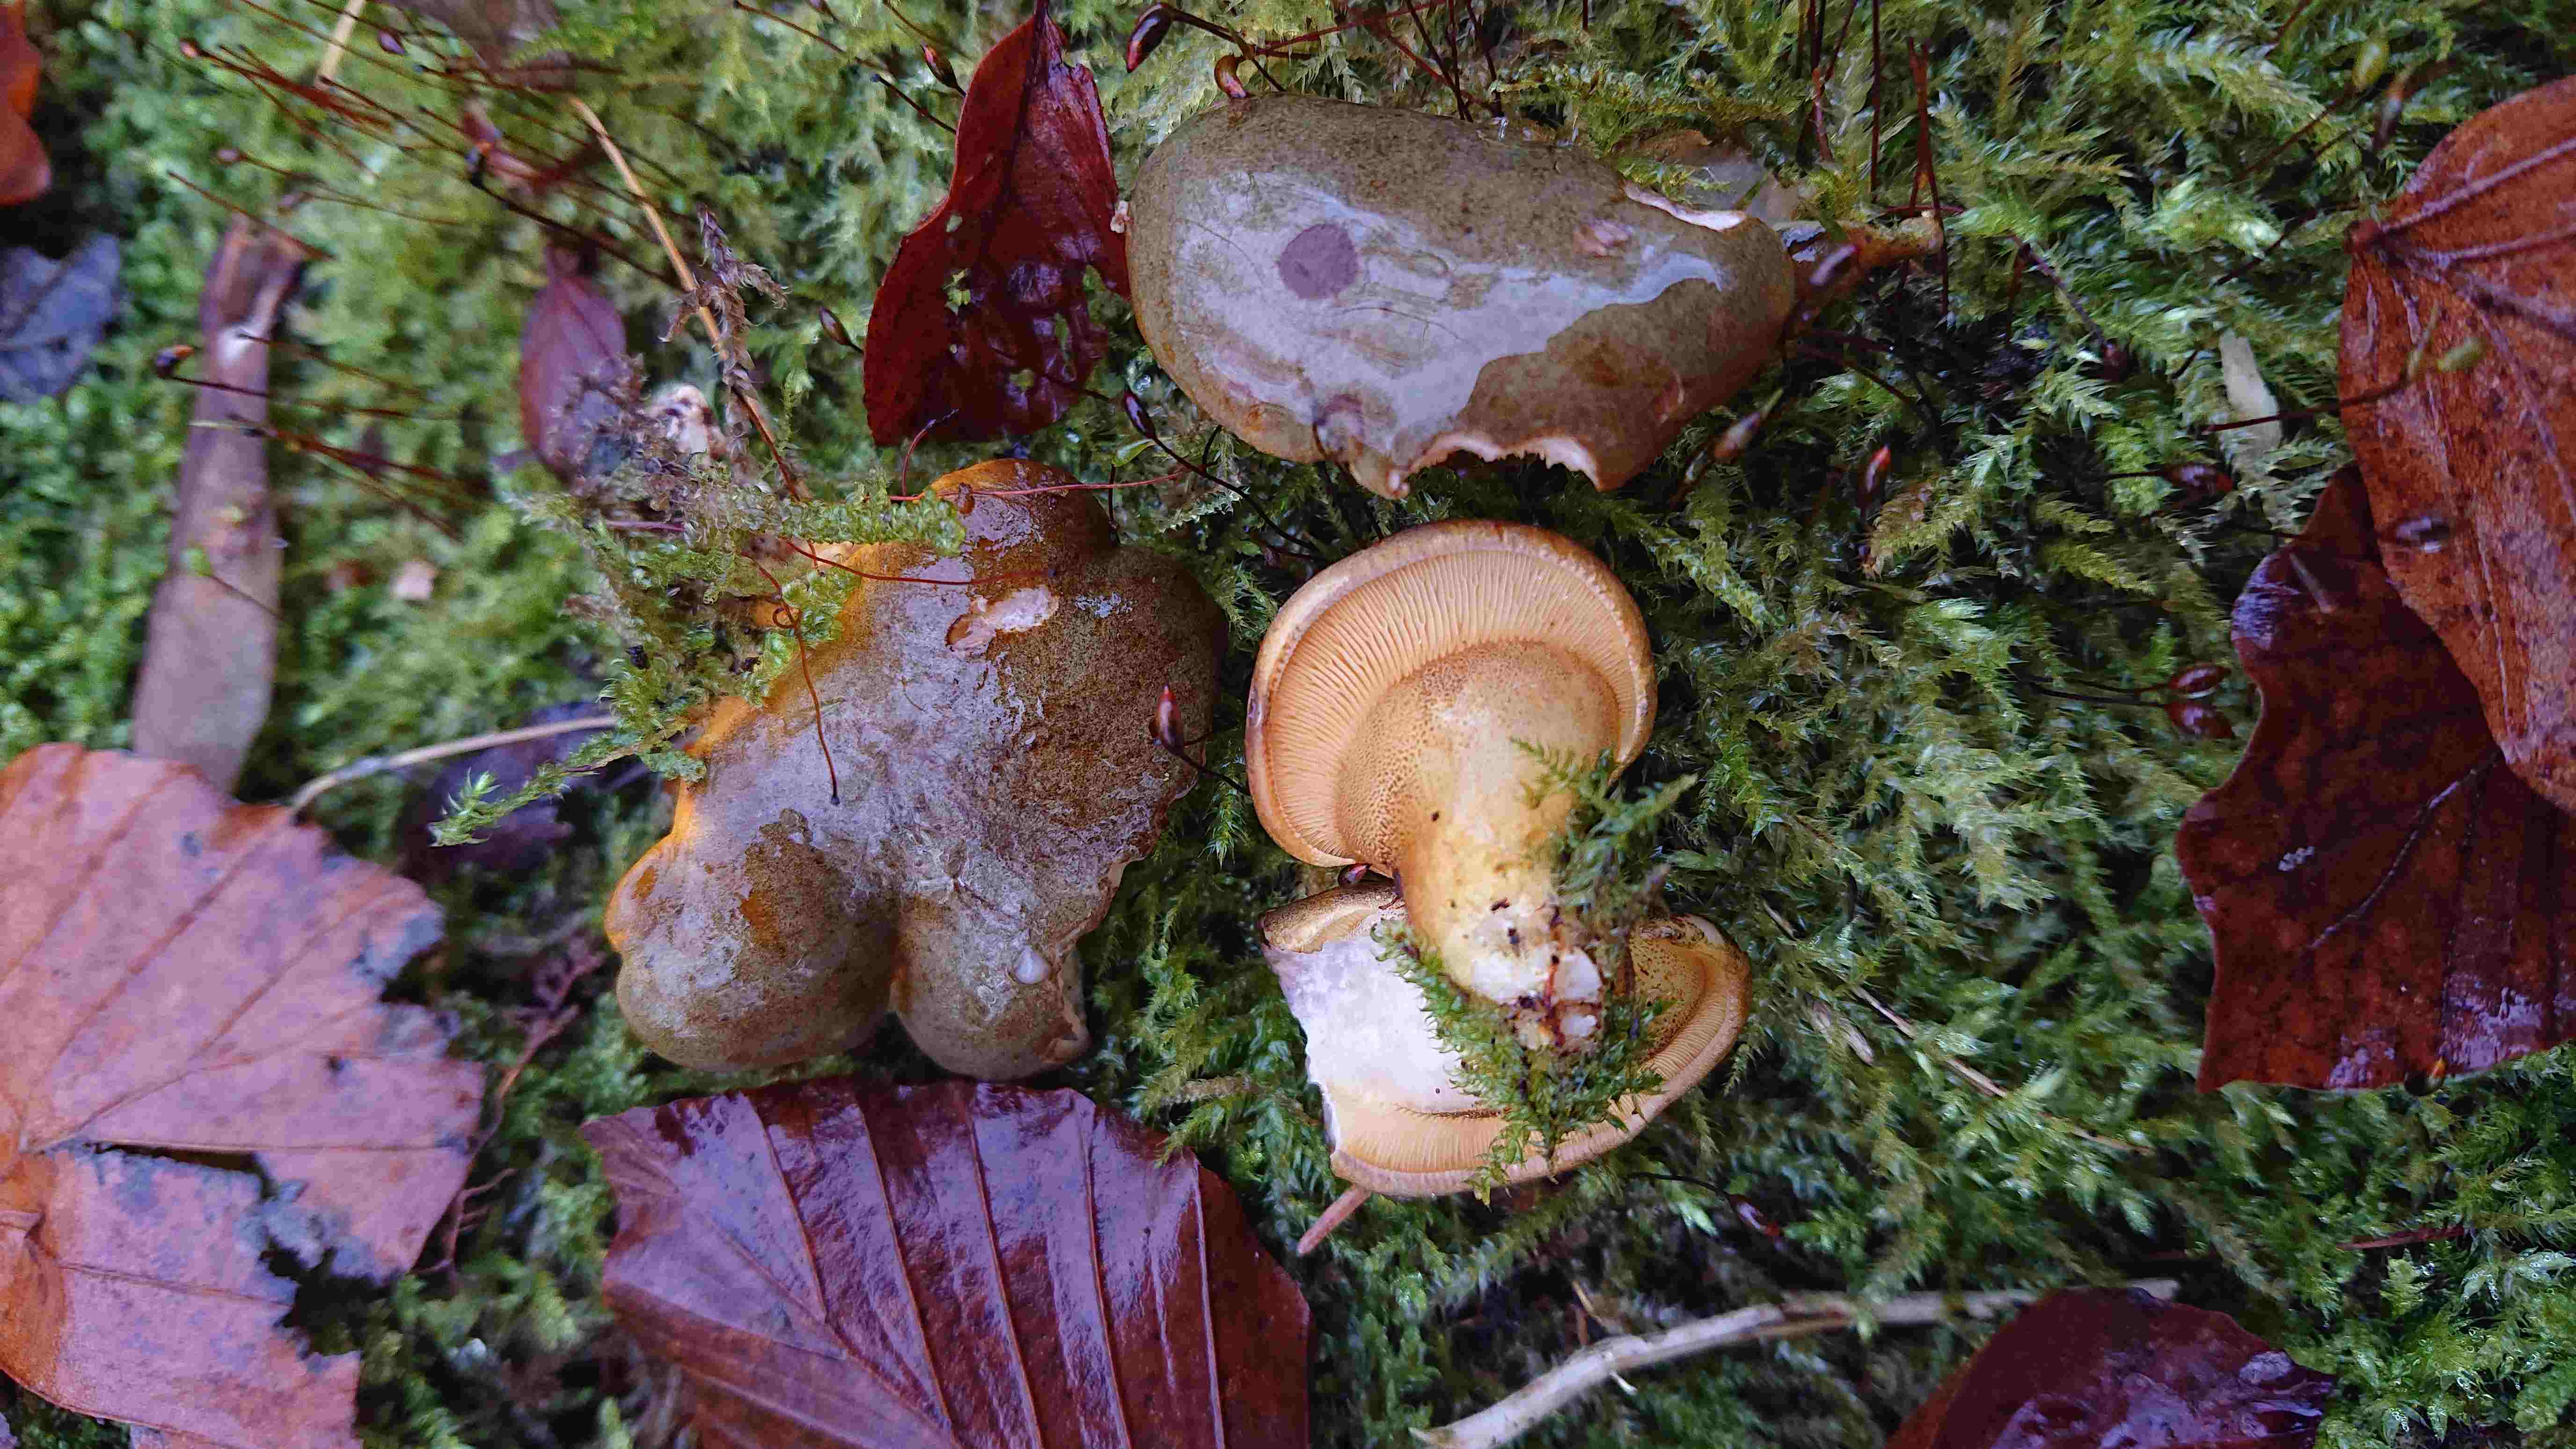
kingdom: Fungi
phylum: Basidiomycota
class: Agaricomycetes
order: Agaricales
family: Sarcomyxaceae
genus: Sarcomyxa
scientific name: Sarcomyxa serotina
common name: gummihat
